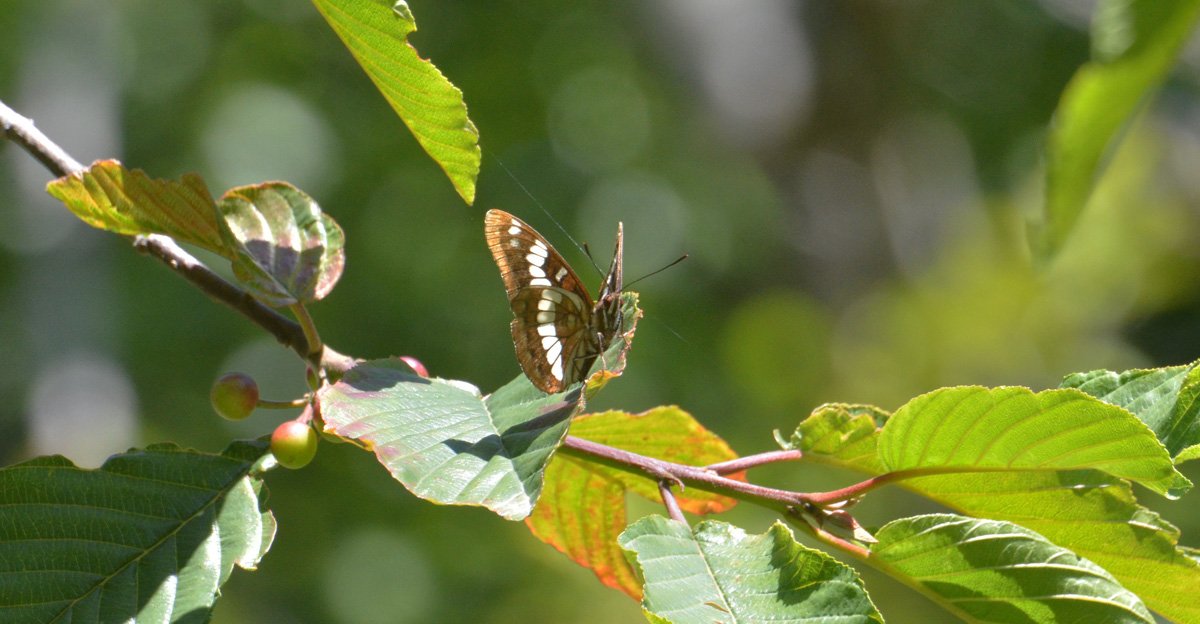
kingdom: Animalia
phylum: Arthropoda
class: Insecta
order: Lepidoptera
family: Nymphalidae
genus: Limenitis
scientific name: Limenitis lorquini
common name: Lorquin's Admiral
